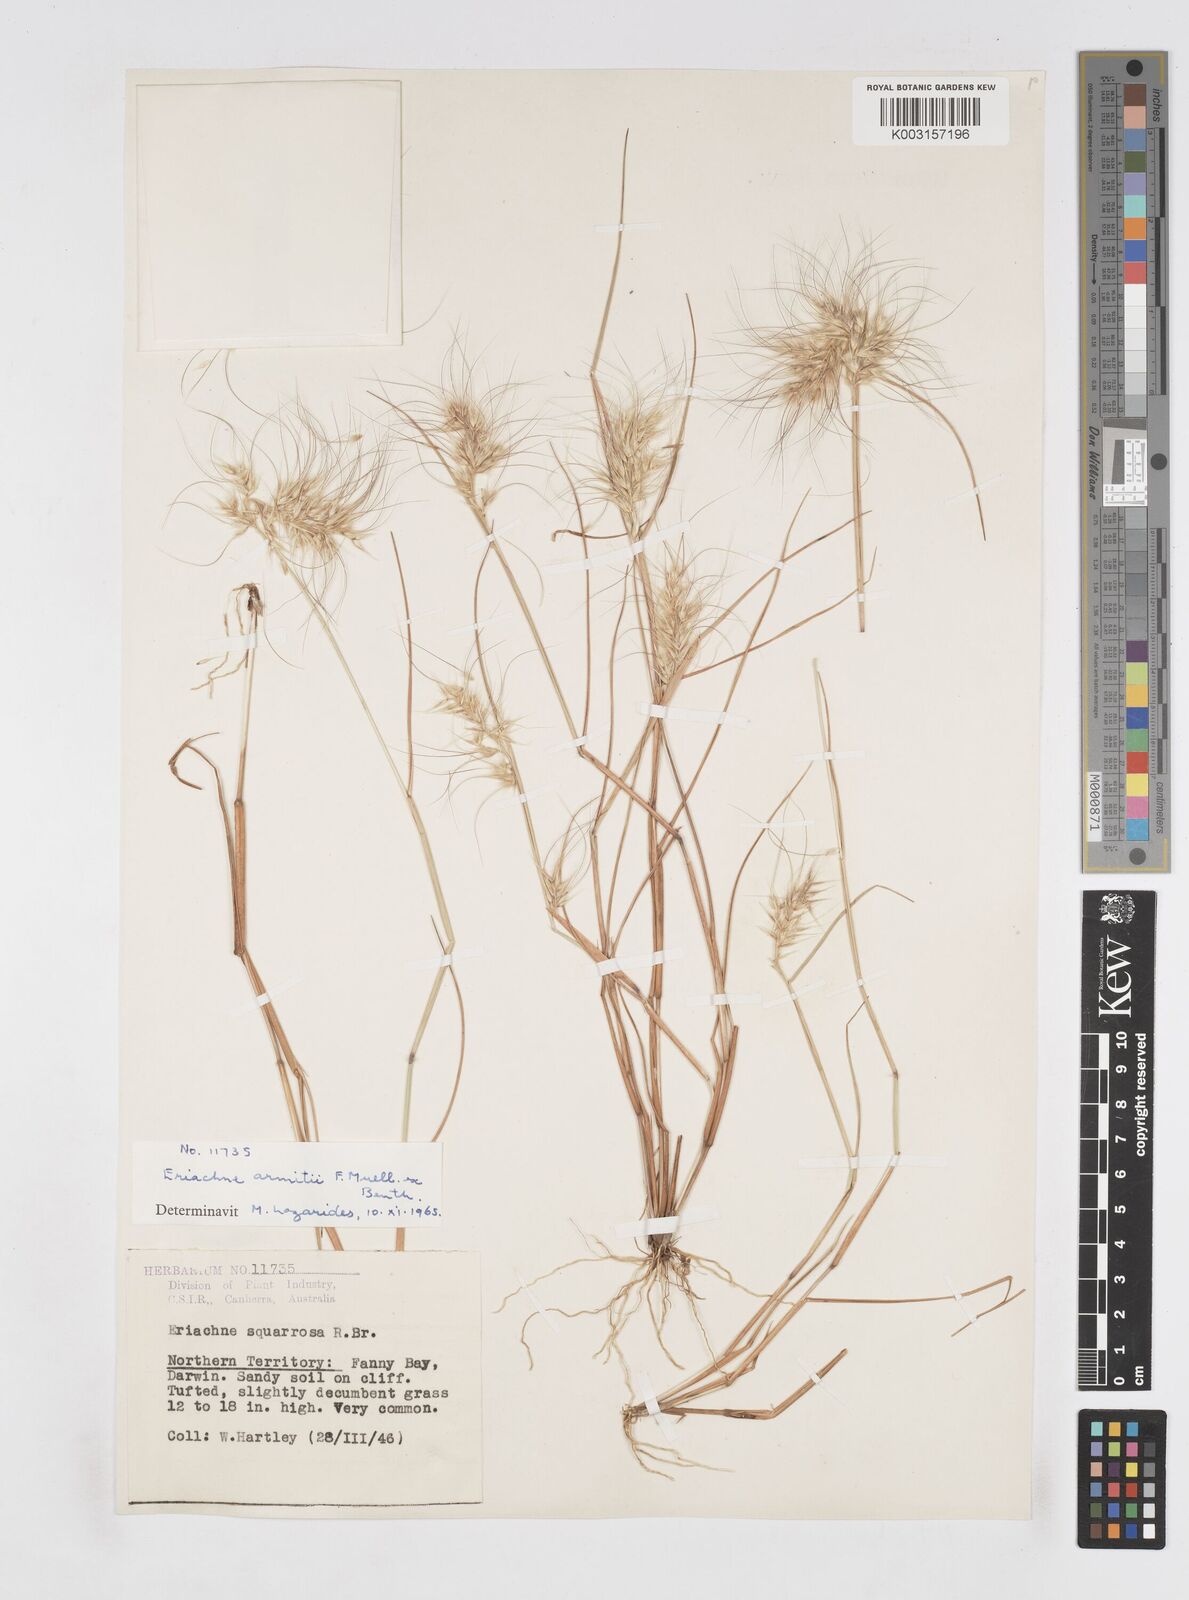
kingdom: Plantae
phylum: Tracheophyta
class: Liliopsida
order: Poales
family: Poaceae
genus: Eriachne
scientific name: Eriachne armitii
